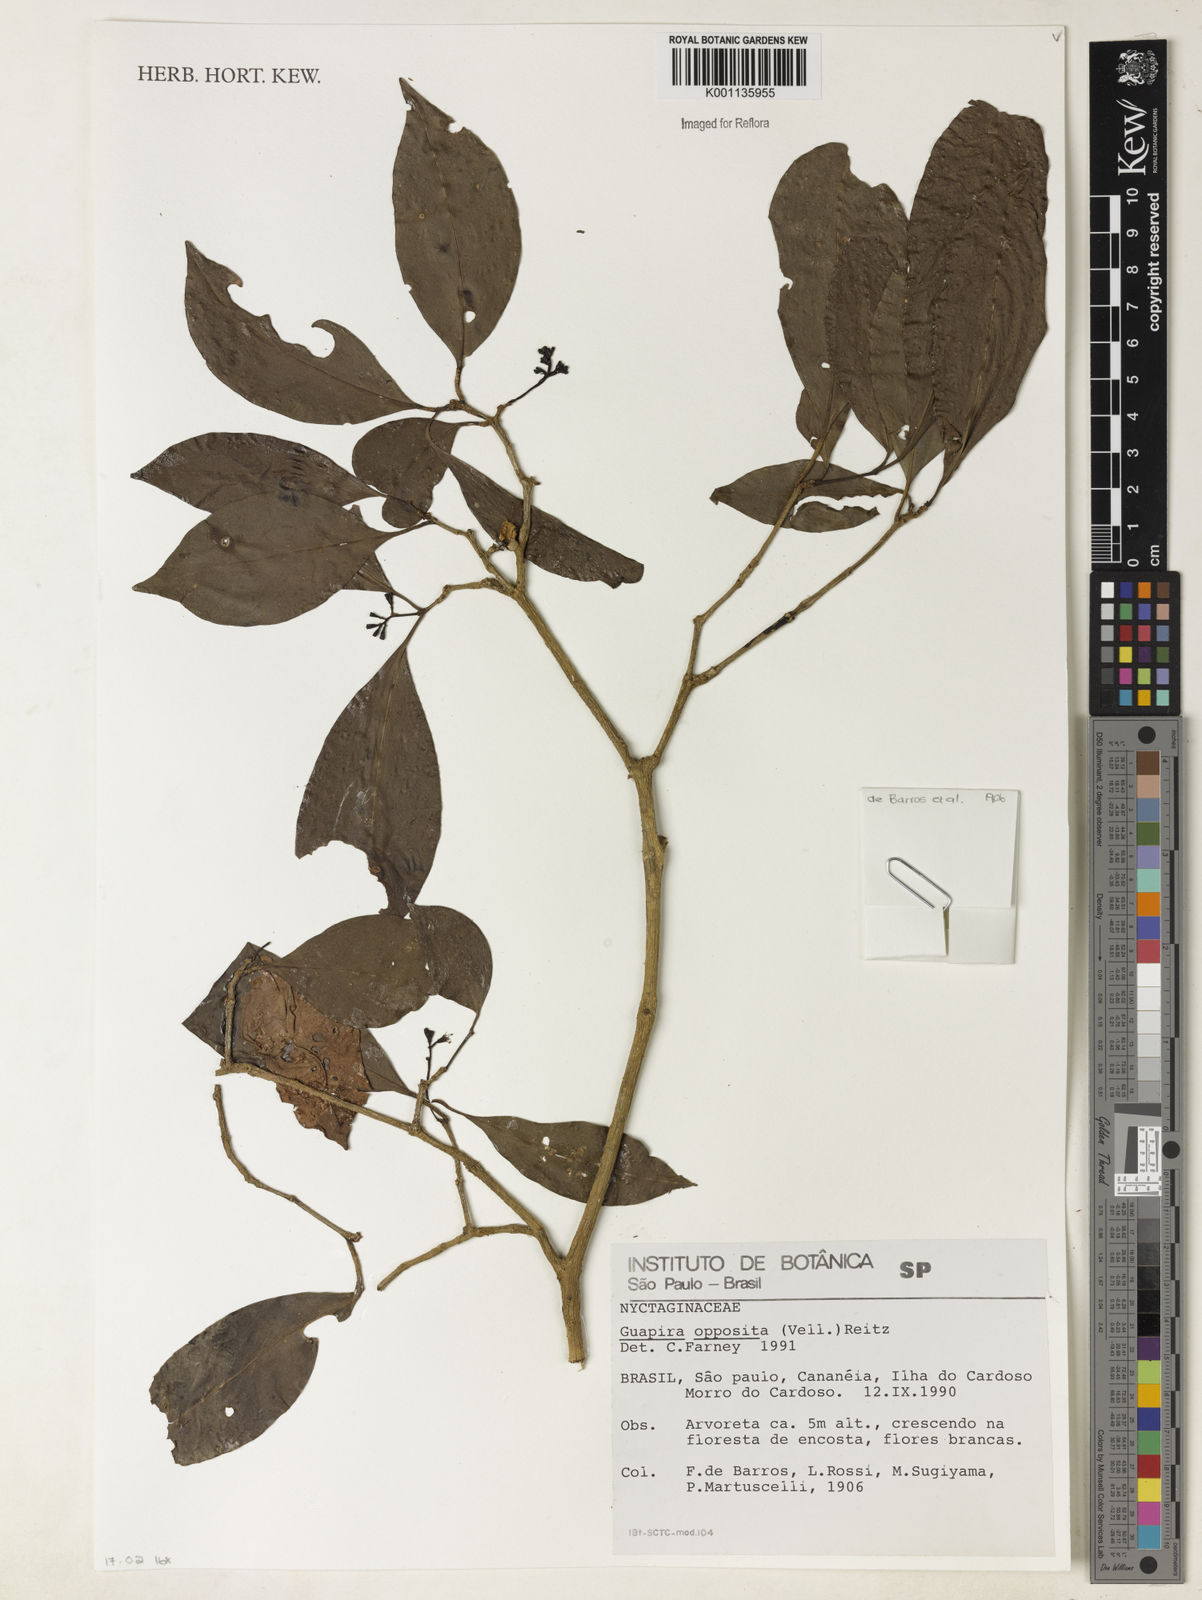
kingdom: Plantae
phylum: Tracheophyta
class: Magnoliopsida
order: Caryophyllales
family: Nyctaginaceae
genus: Guapira
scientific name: Guapira opposita
